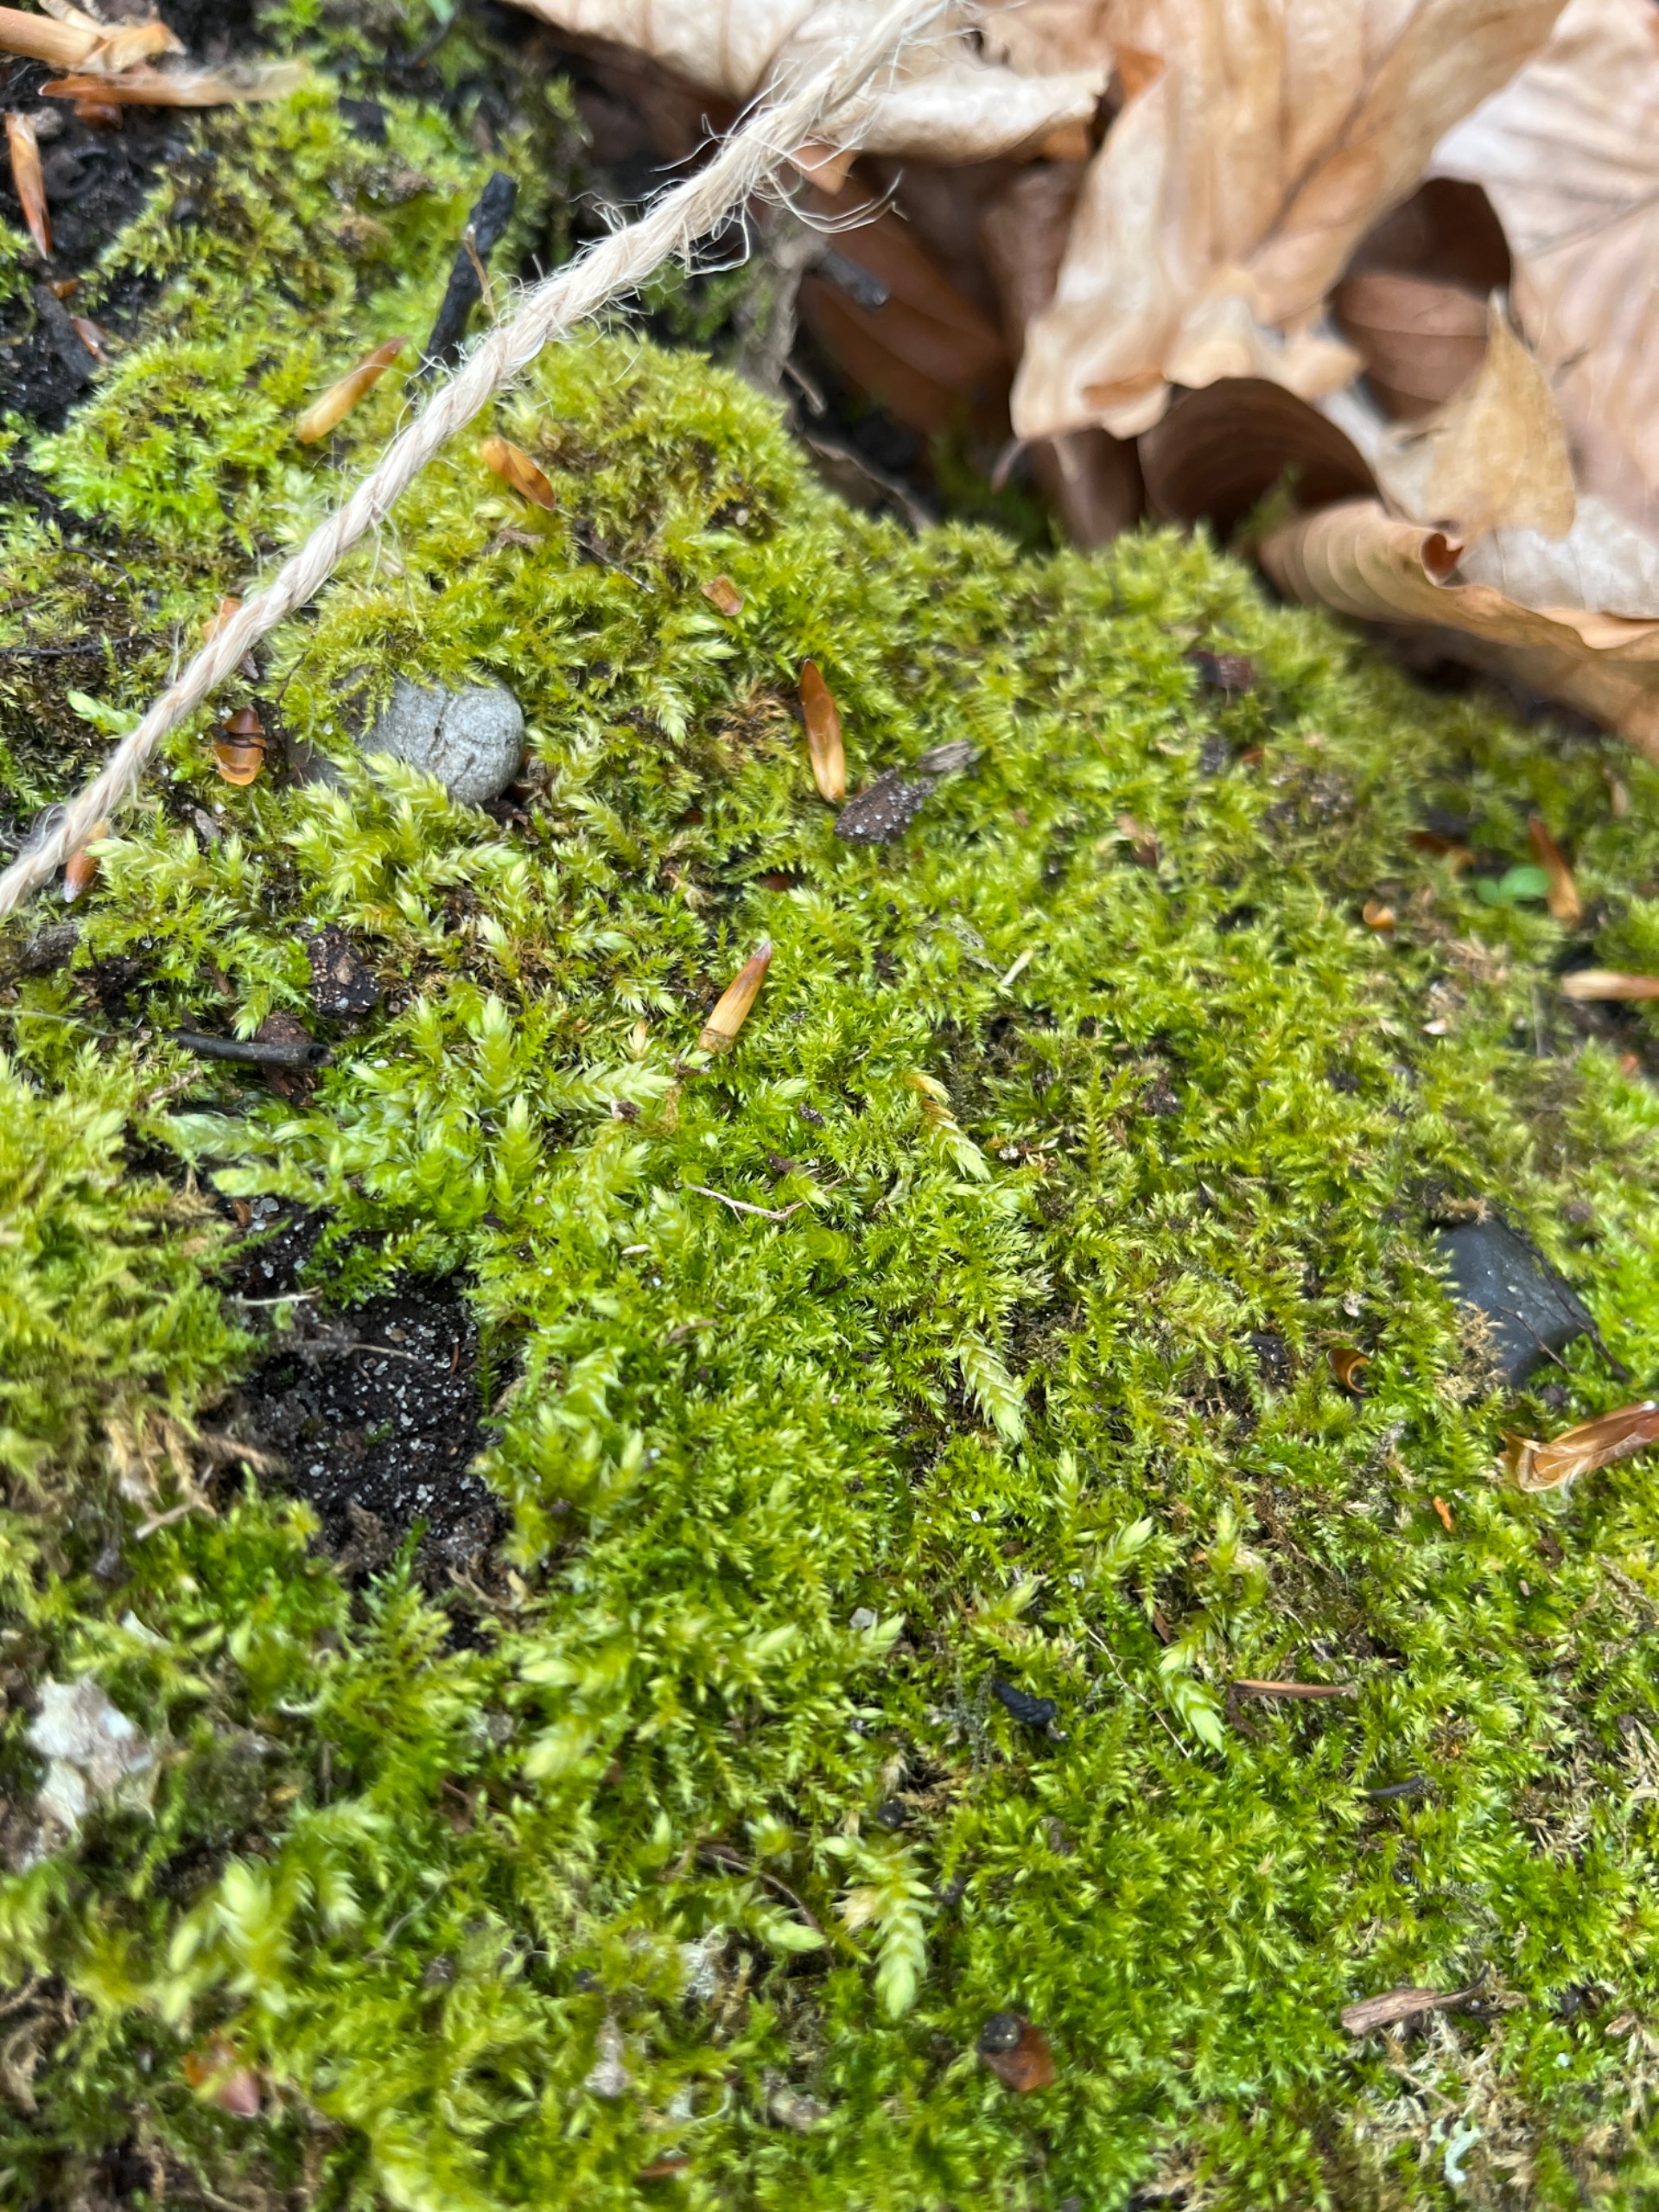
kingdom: Plantae
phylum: Bryophyta
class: Bryopsida
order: Hypnales
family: Brachytheciaceae
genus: Kindbergia
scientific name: Kindbergia praelonga
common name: Forskelligbladet vortetand
